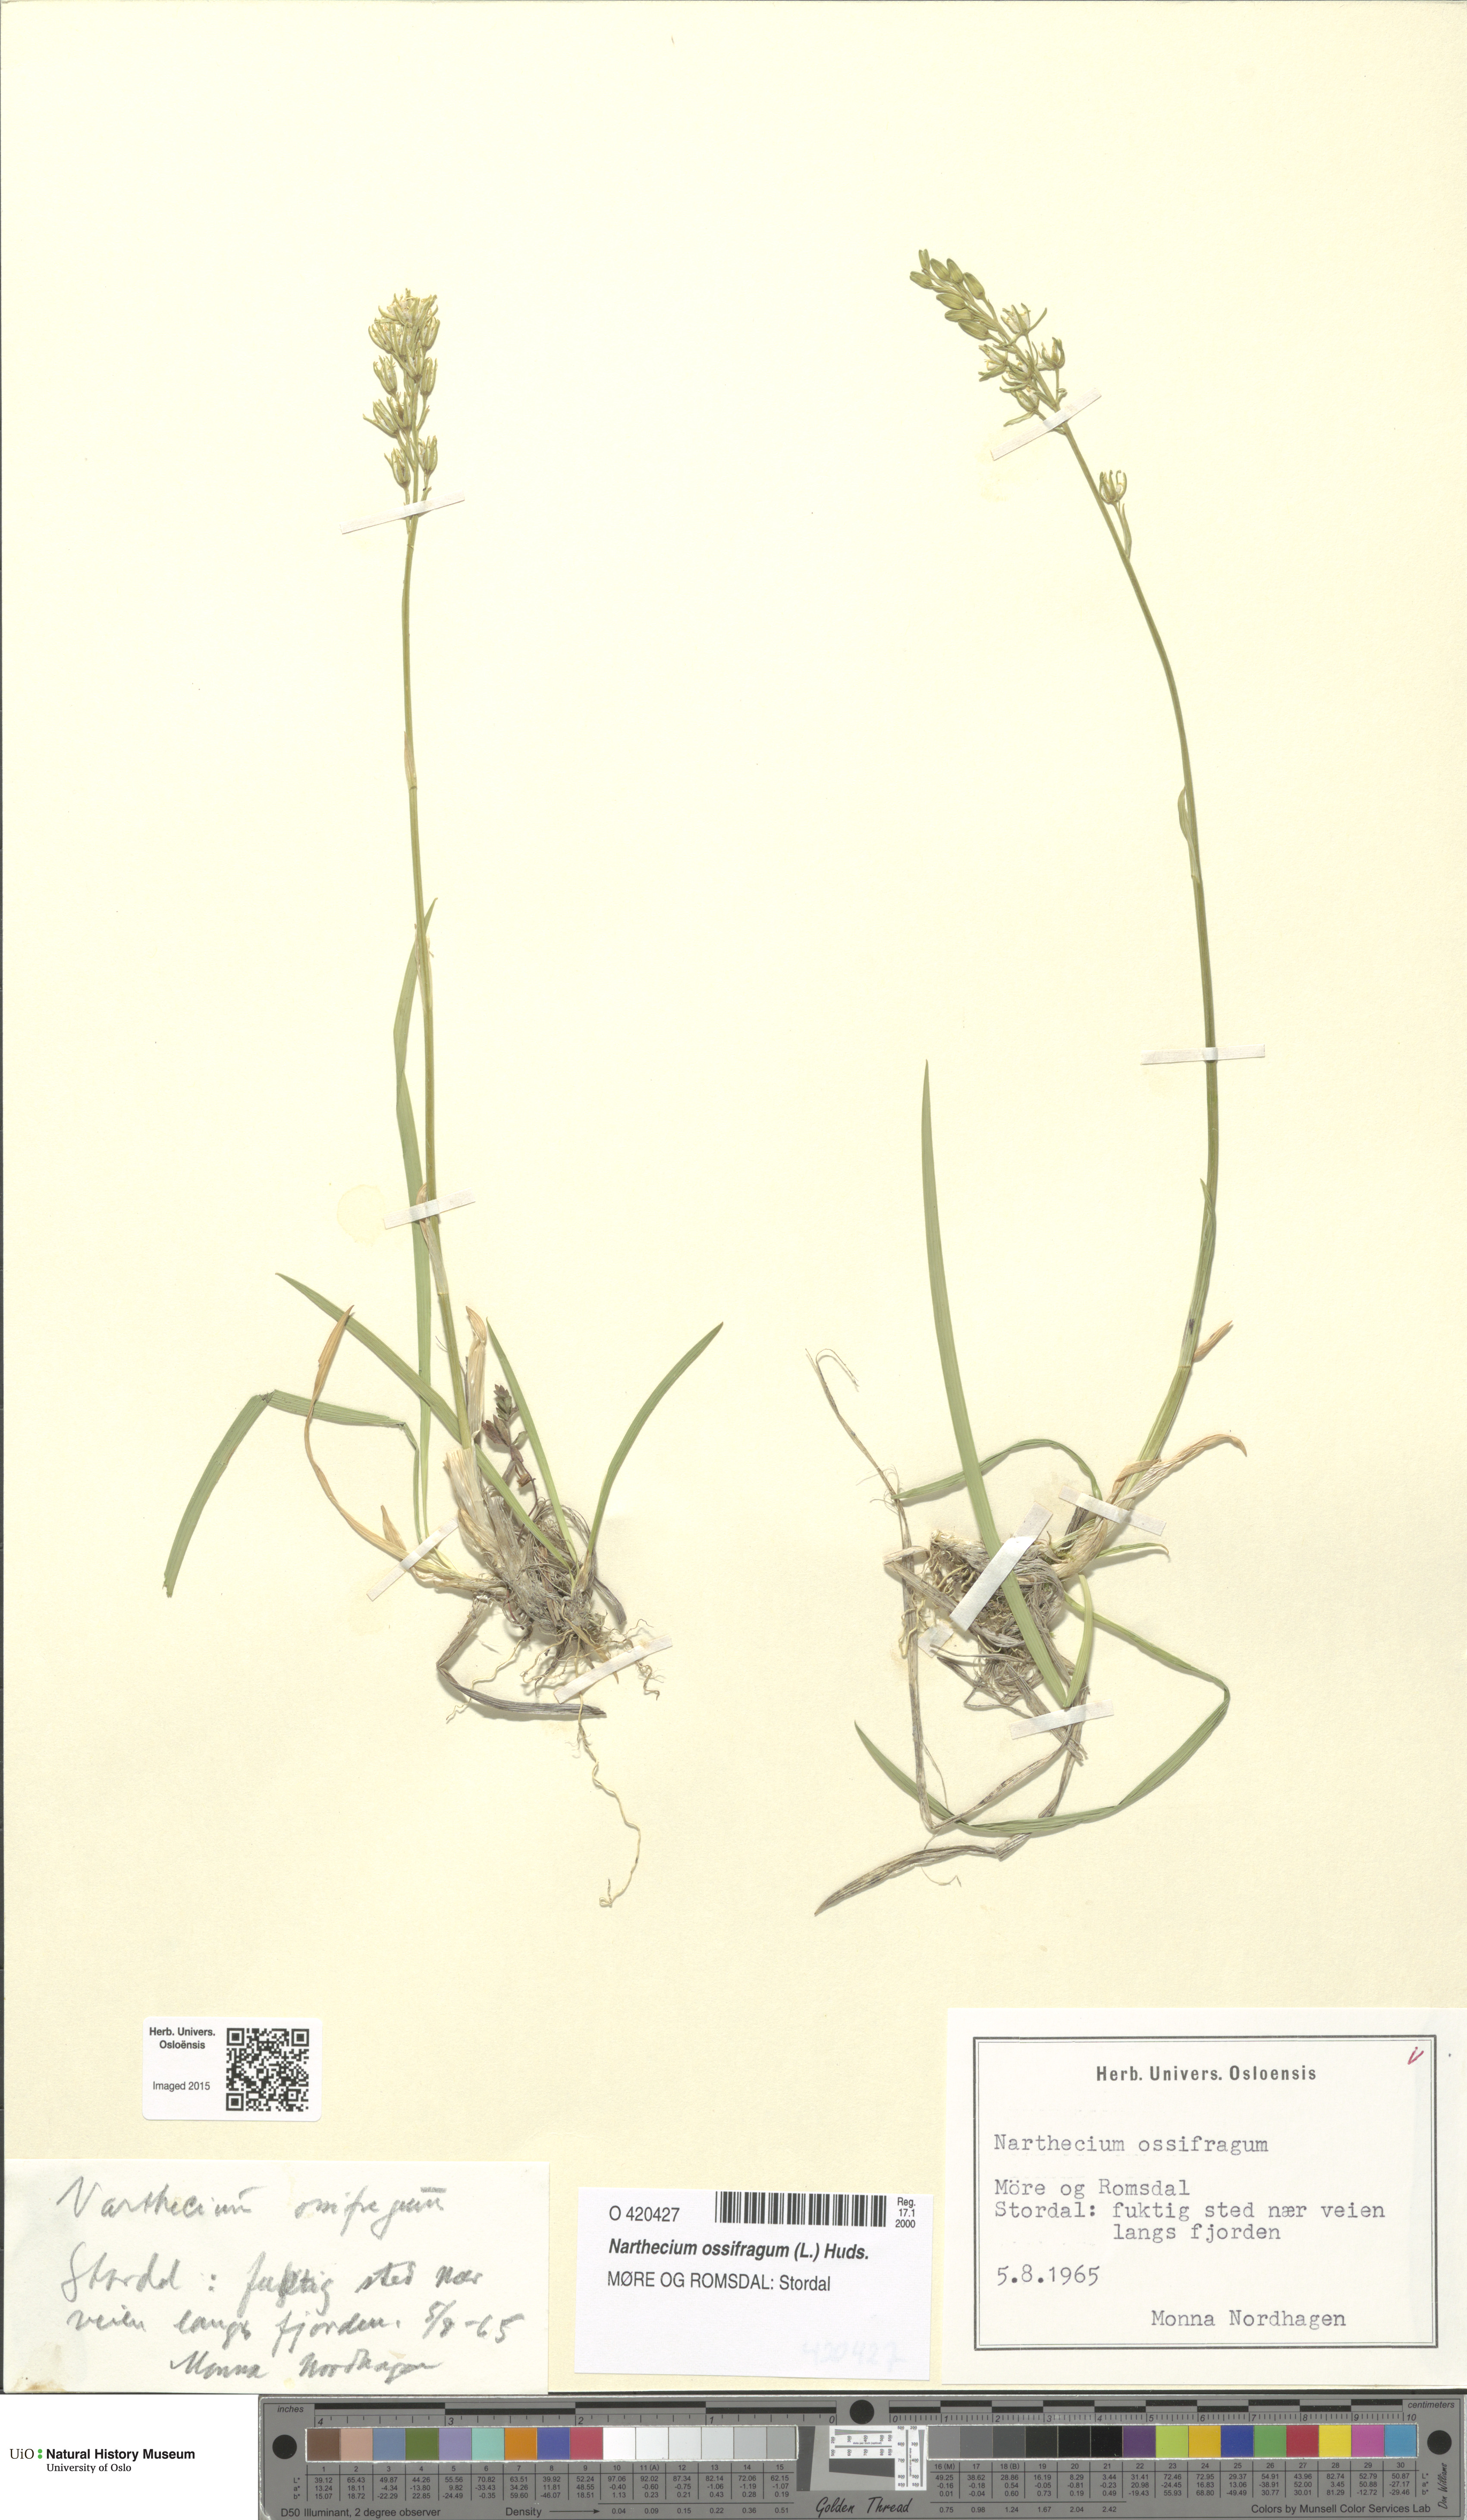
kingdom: Plantae
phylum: Tracheophyta
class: Liliopsida
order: Dioscoreales
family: Nartheciaceae
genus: Narthecium
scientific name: Narthecium ossifragum
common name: Bog asphodel
